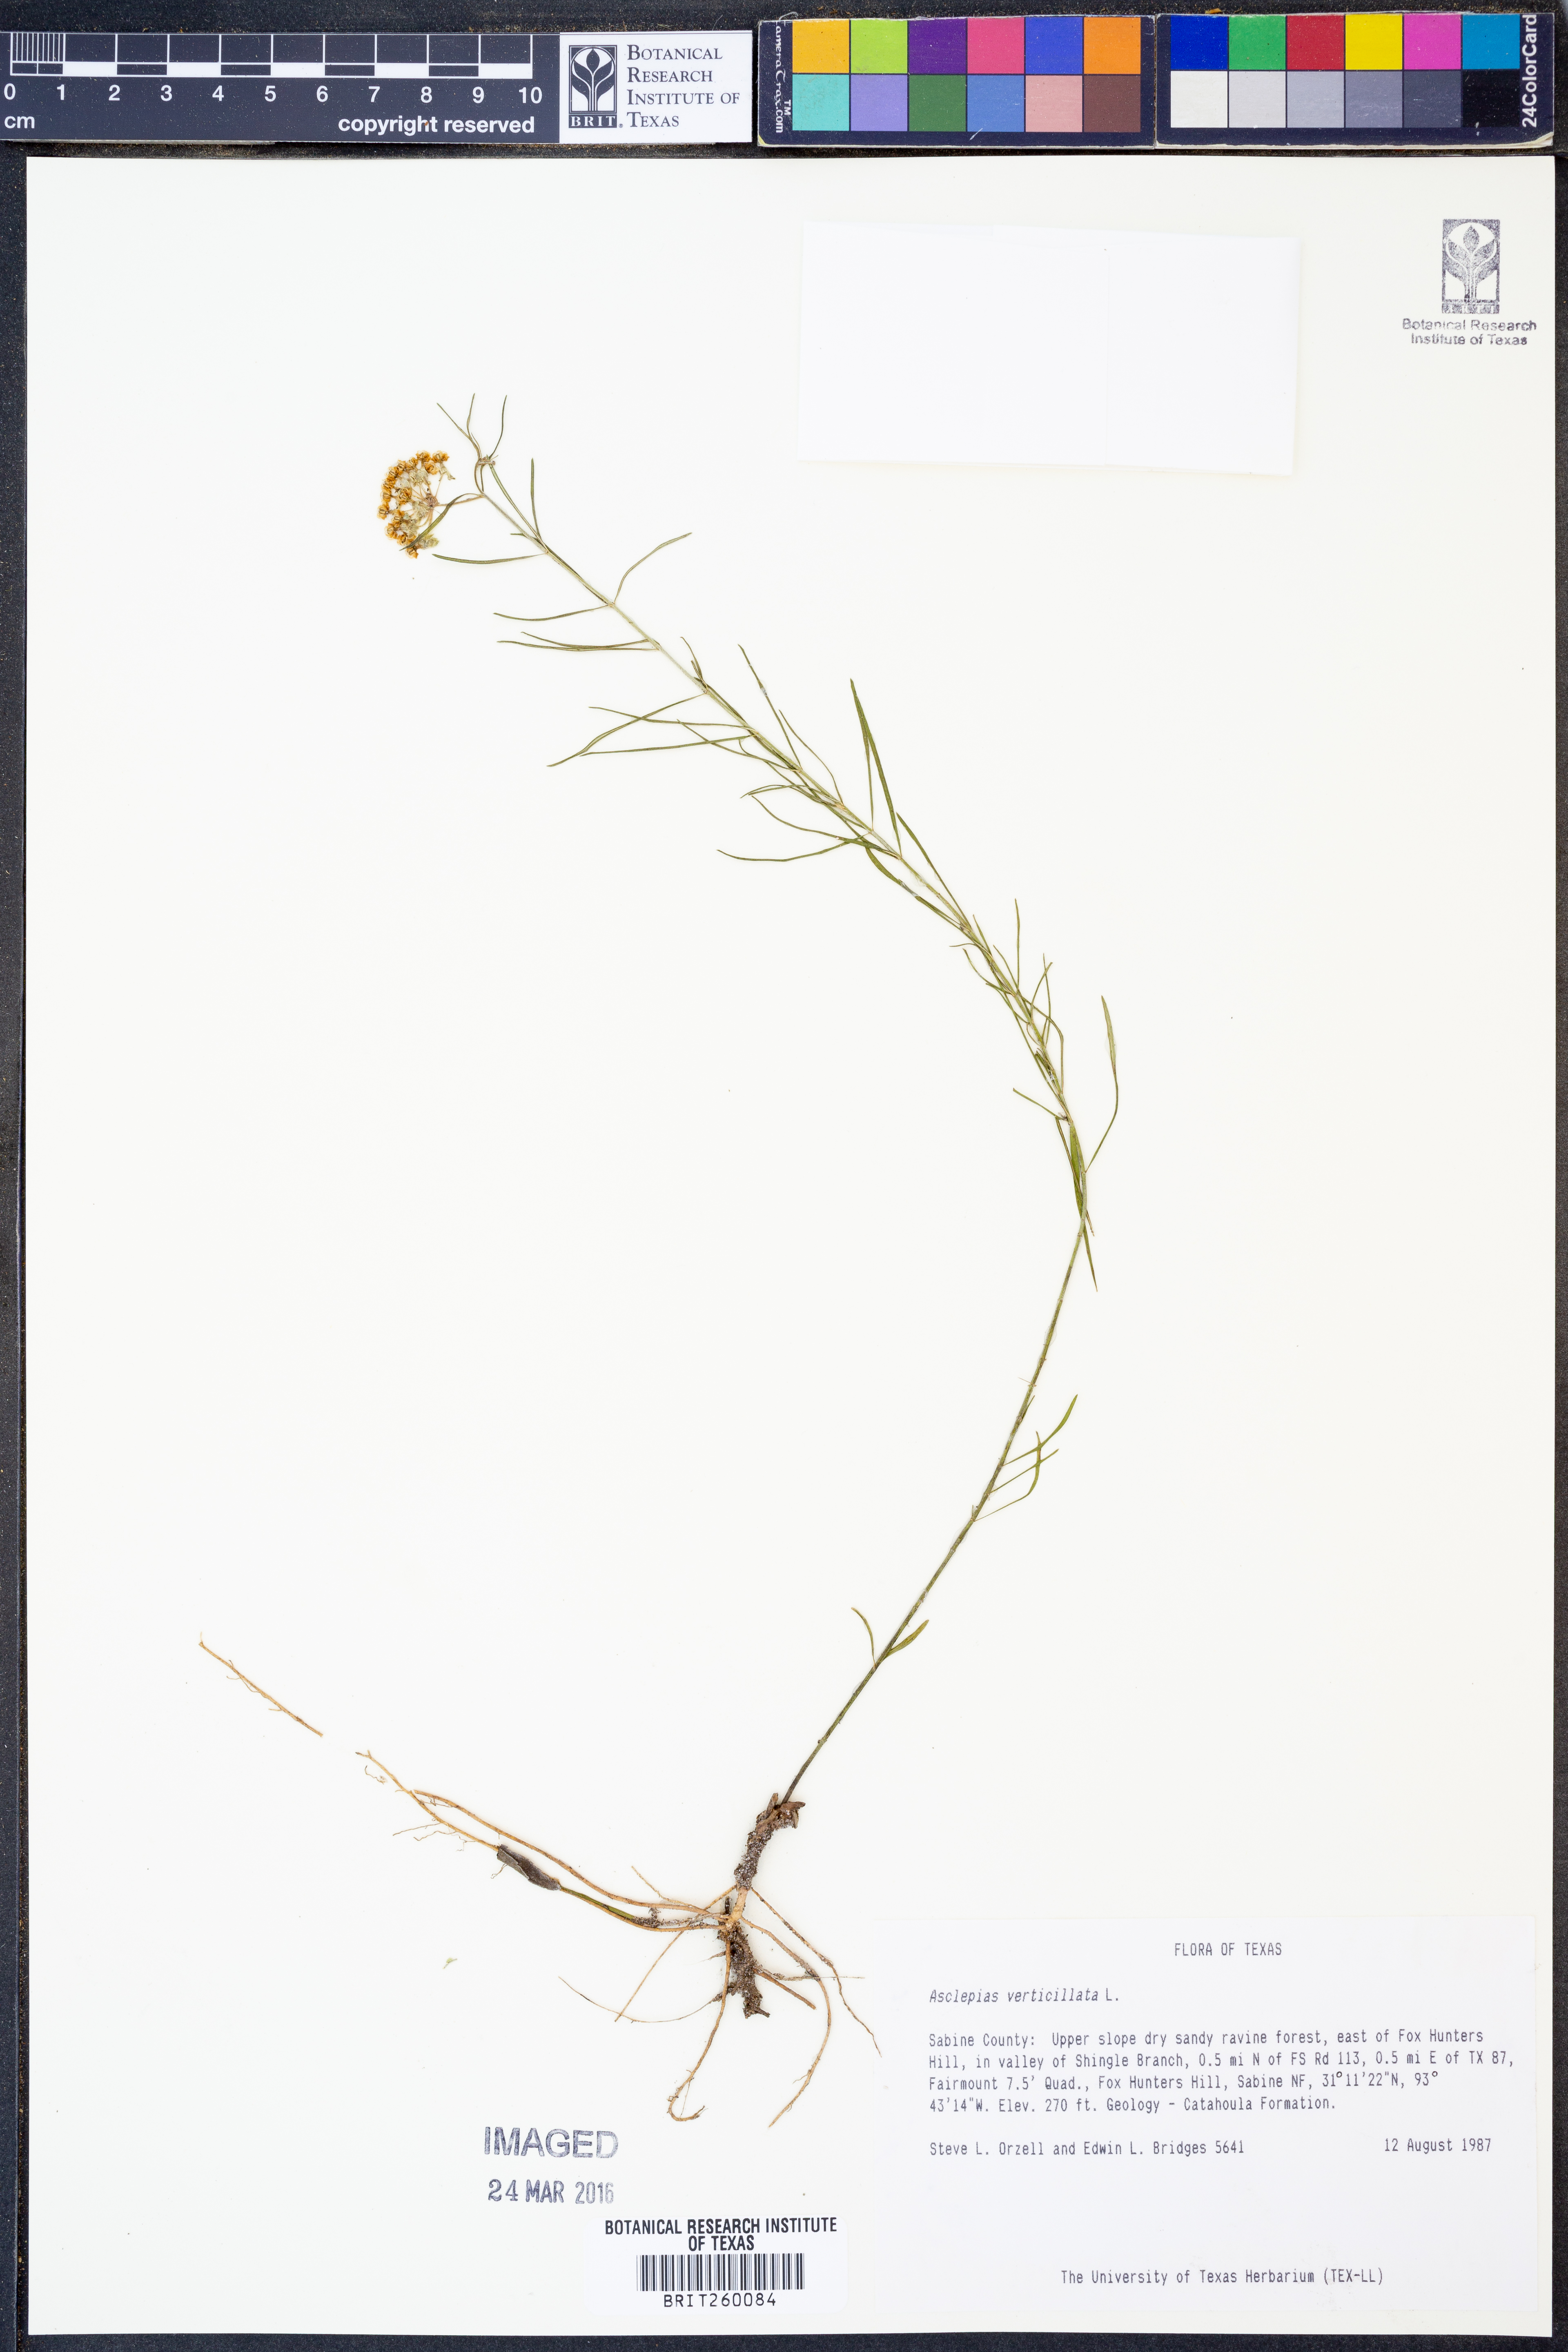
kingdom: Plantae
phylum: Tracheophyta
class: Magnoliopsida
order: Gentianales
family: Apocynaceae
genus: Asclepias
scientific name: Asclepias verticillata
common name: Eastern whorled milkweed
